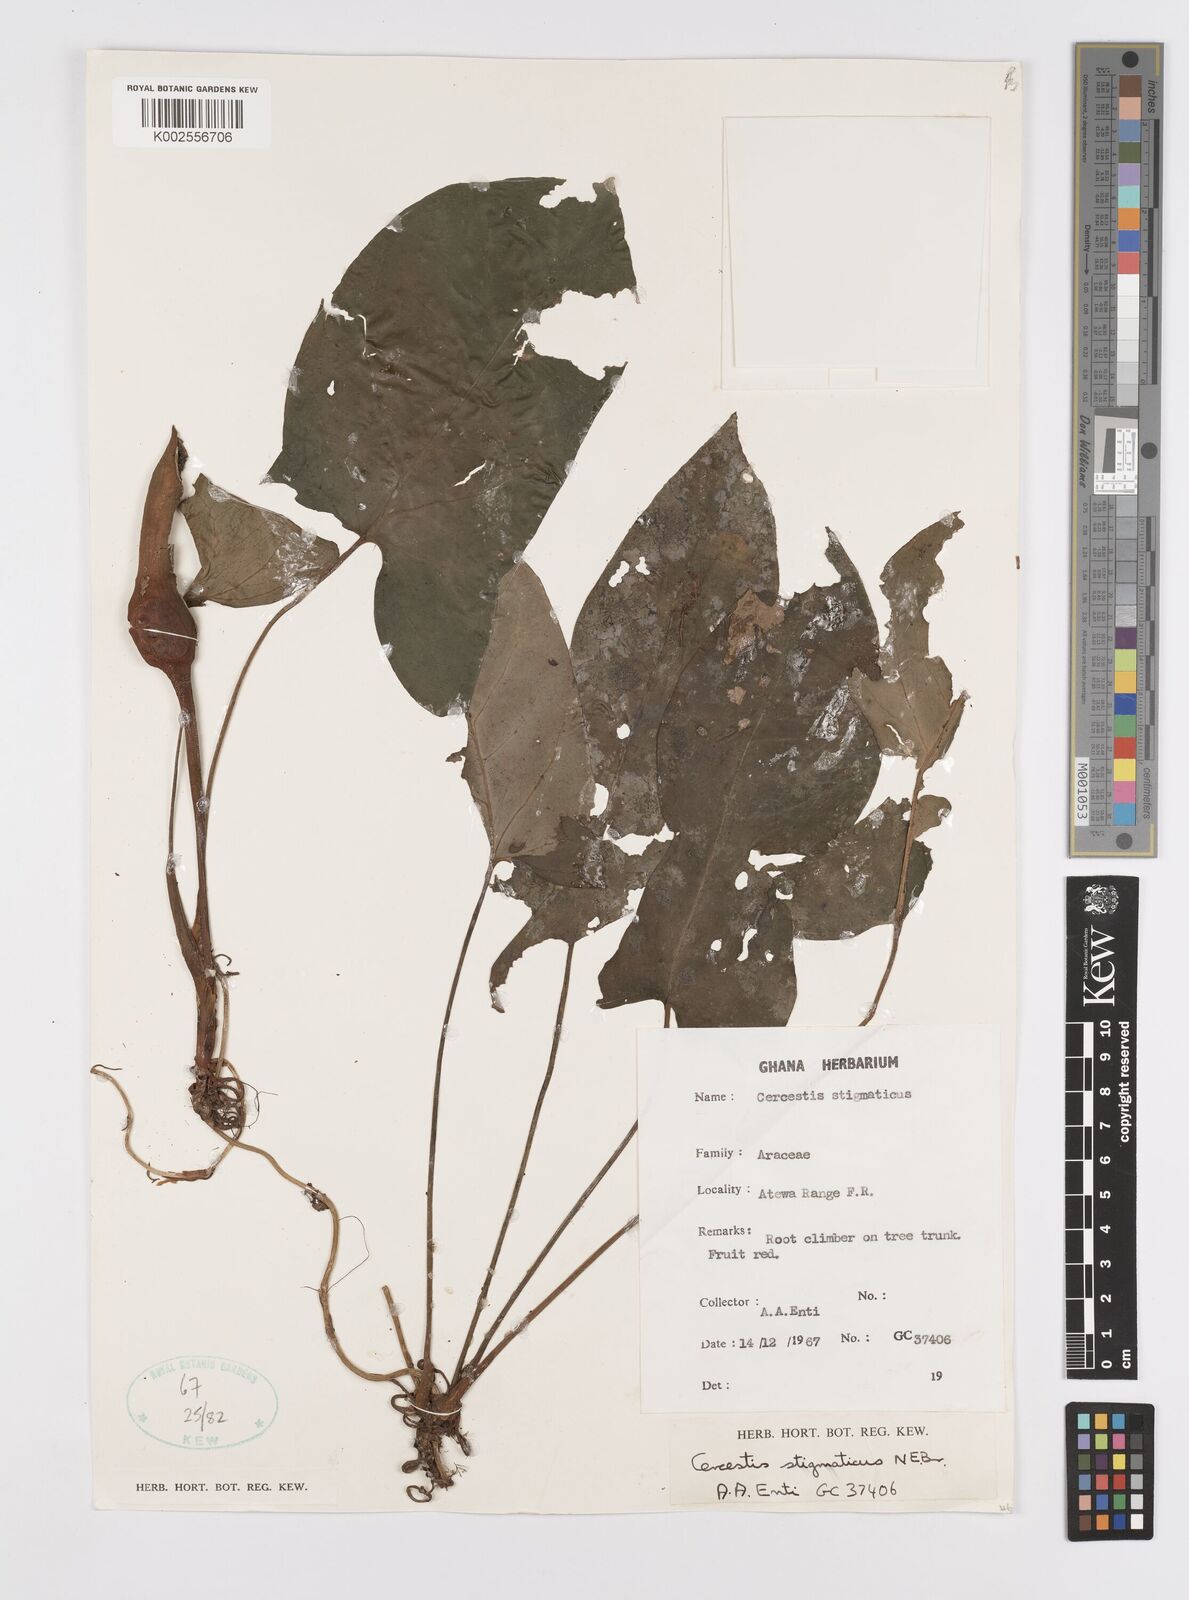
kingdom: Plantae
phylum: Tracheophyta
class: Liliopsida
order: Alismatales
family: Araceae
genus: Cercestis
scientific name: Cercestis dinklagei
